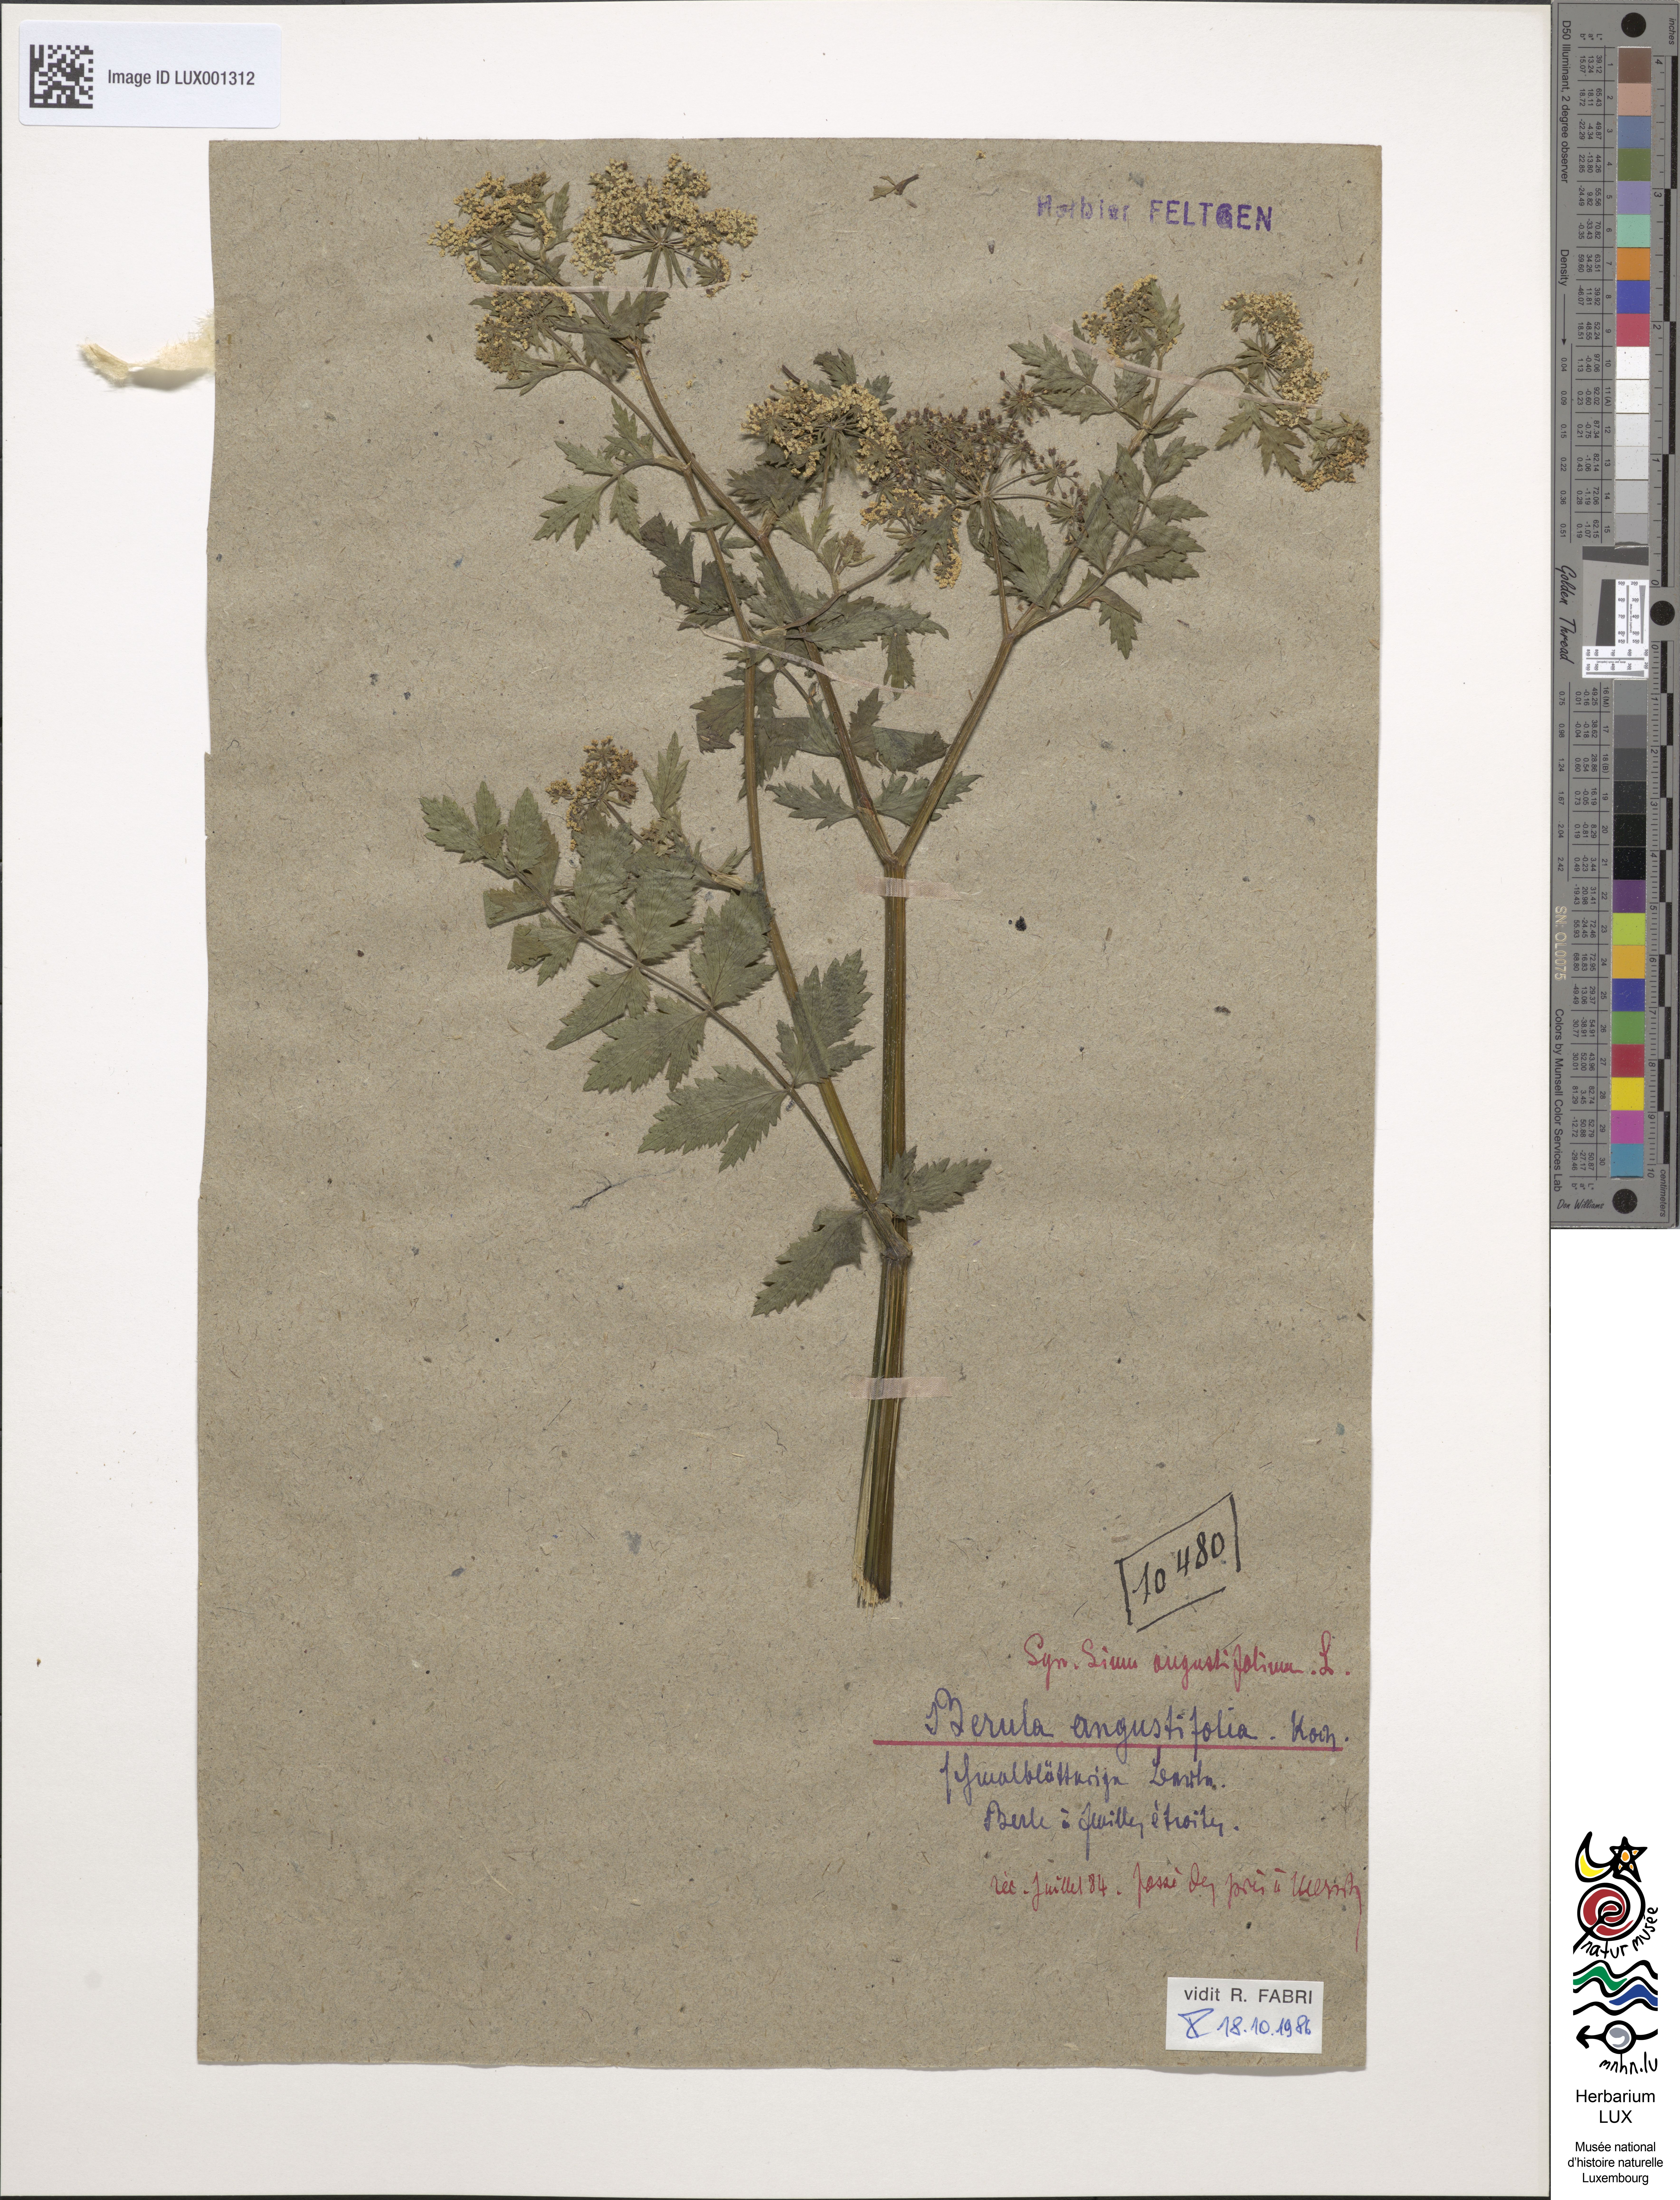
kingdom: Plantae
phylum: Tracheophyta
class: Magnoliopsida
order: Apiales
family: Apiaceae
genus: Berula
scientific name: Berula erecta
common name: Lesser water-parsnip
